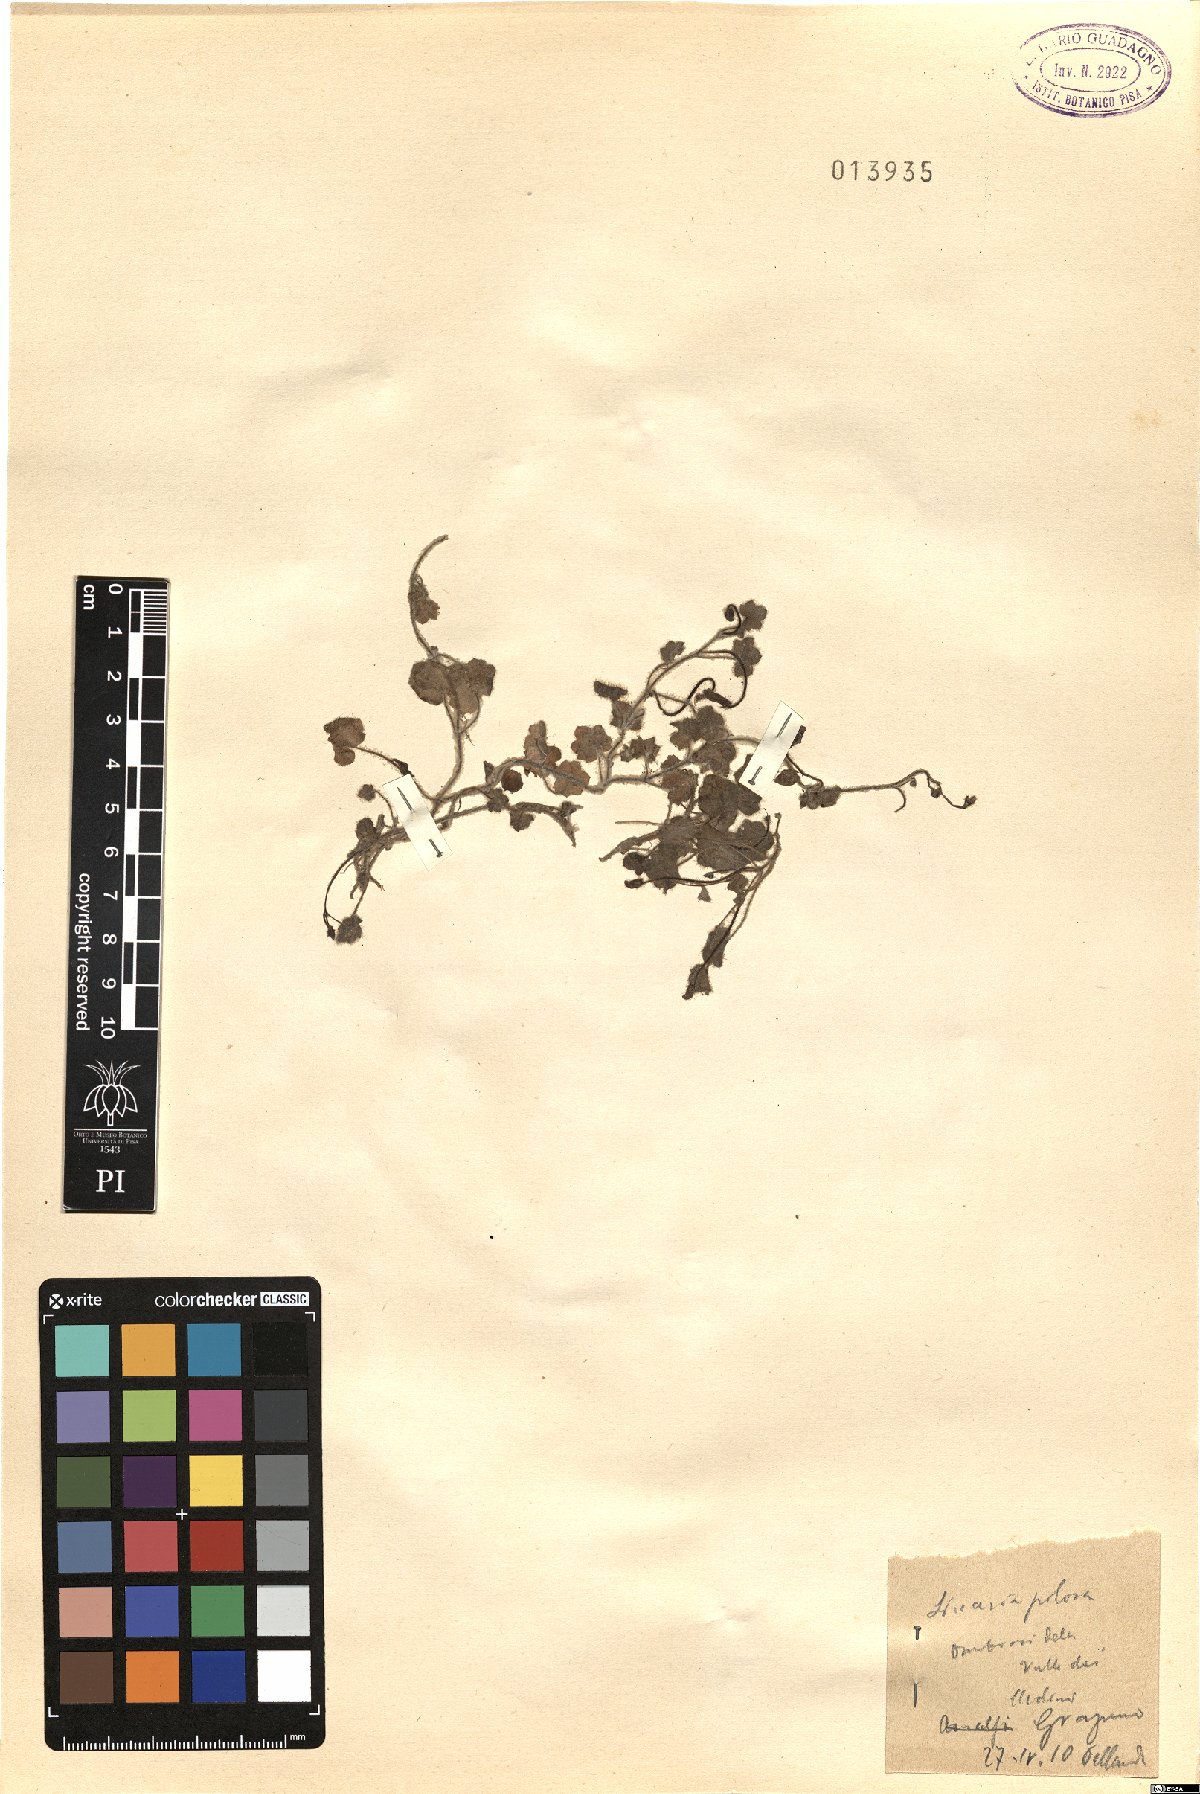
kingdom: Plantae
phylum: Tracheophyta
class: Magnoliopsida
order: Lamiales
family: Plantaginaceae
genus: Sibthorpia
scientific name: Sibthorpia europaea
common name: Cornish moneywort
